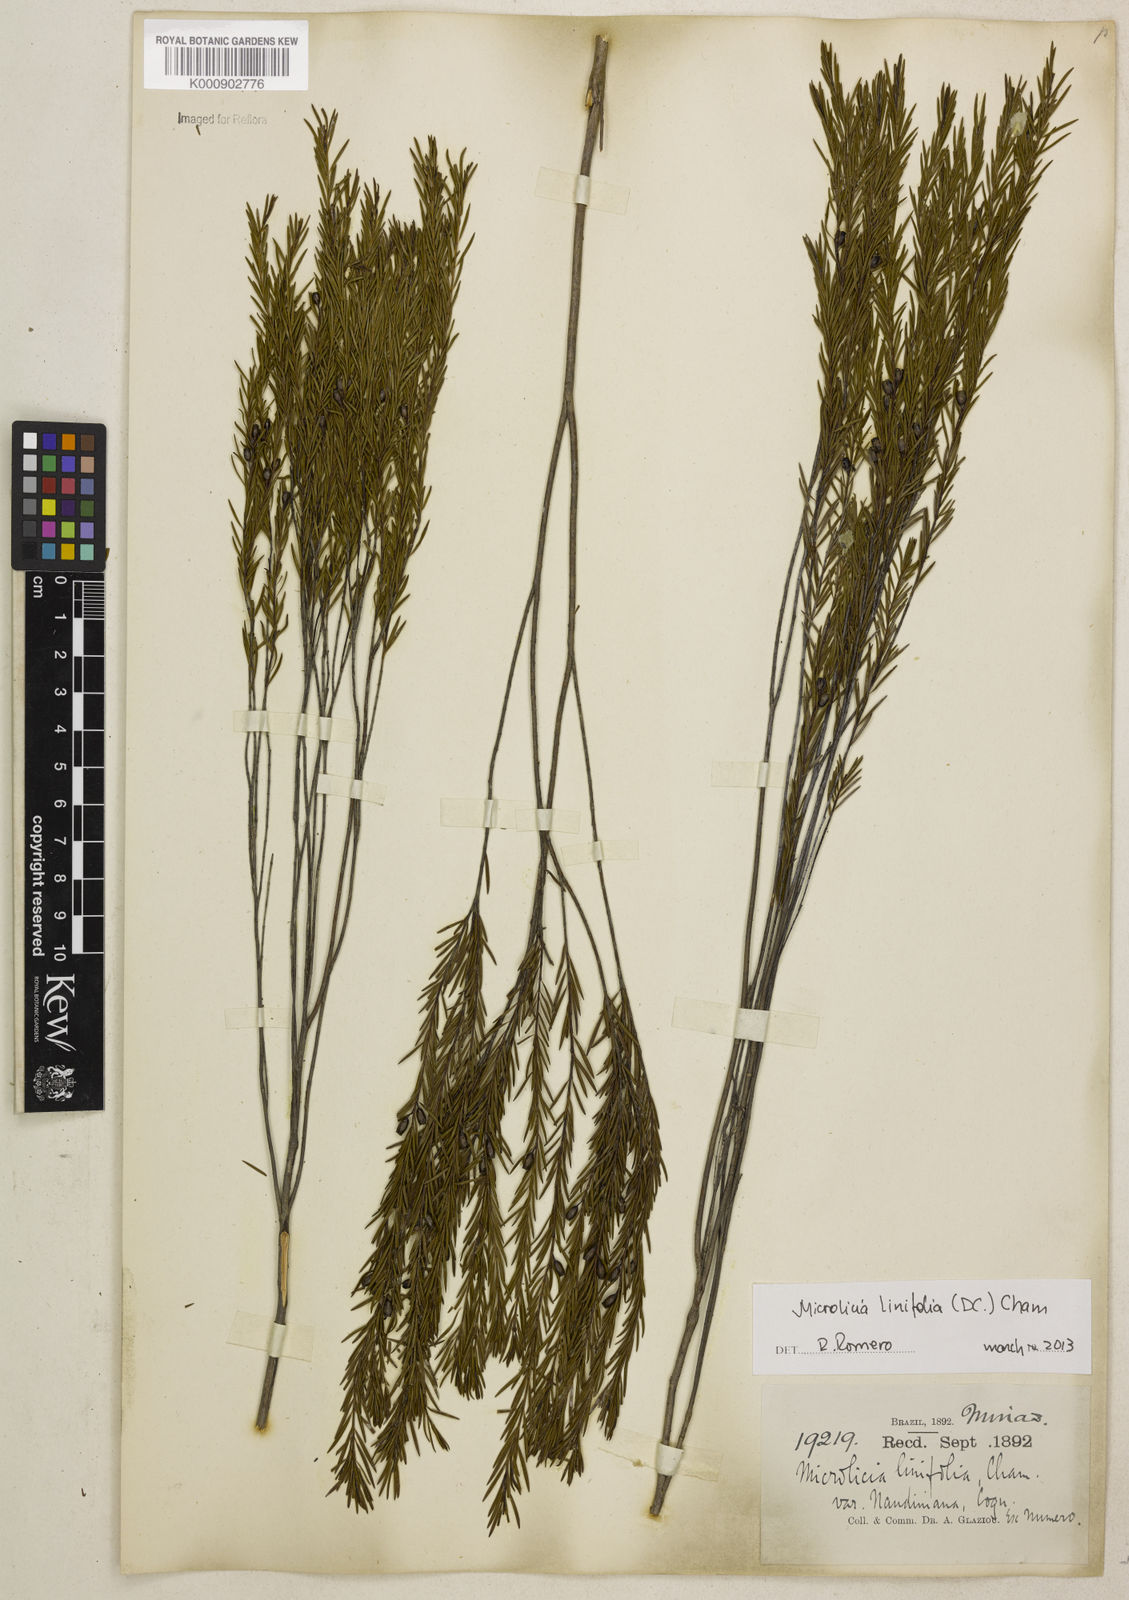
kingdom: Plantae
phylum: Tracheophyta
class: Magnoliopsida
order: Myrtales
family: Melastomataceae
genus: Microlicia
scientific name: Microlicia linifolia
